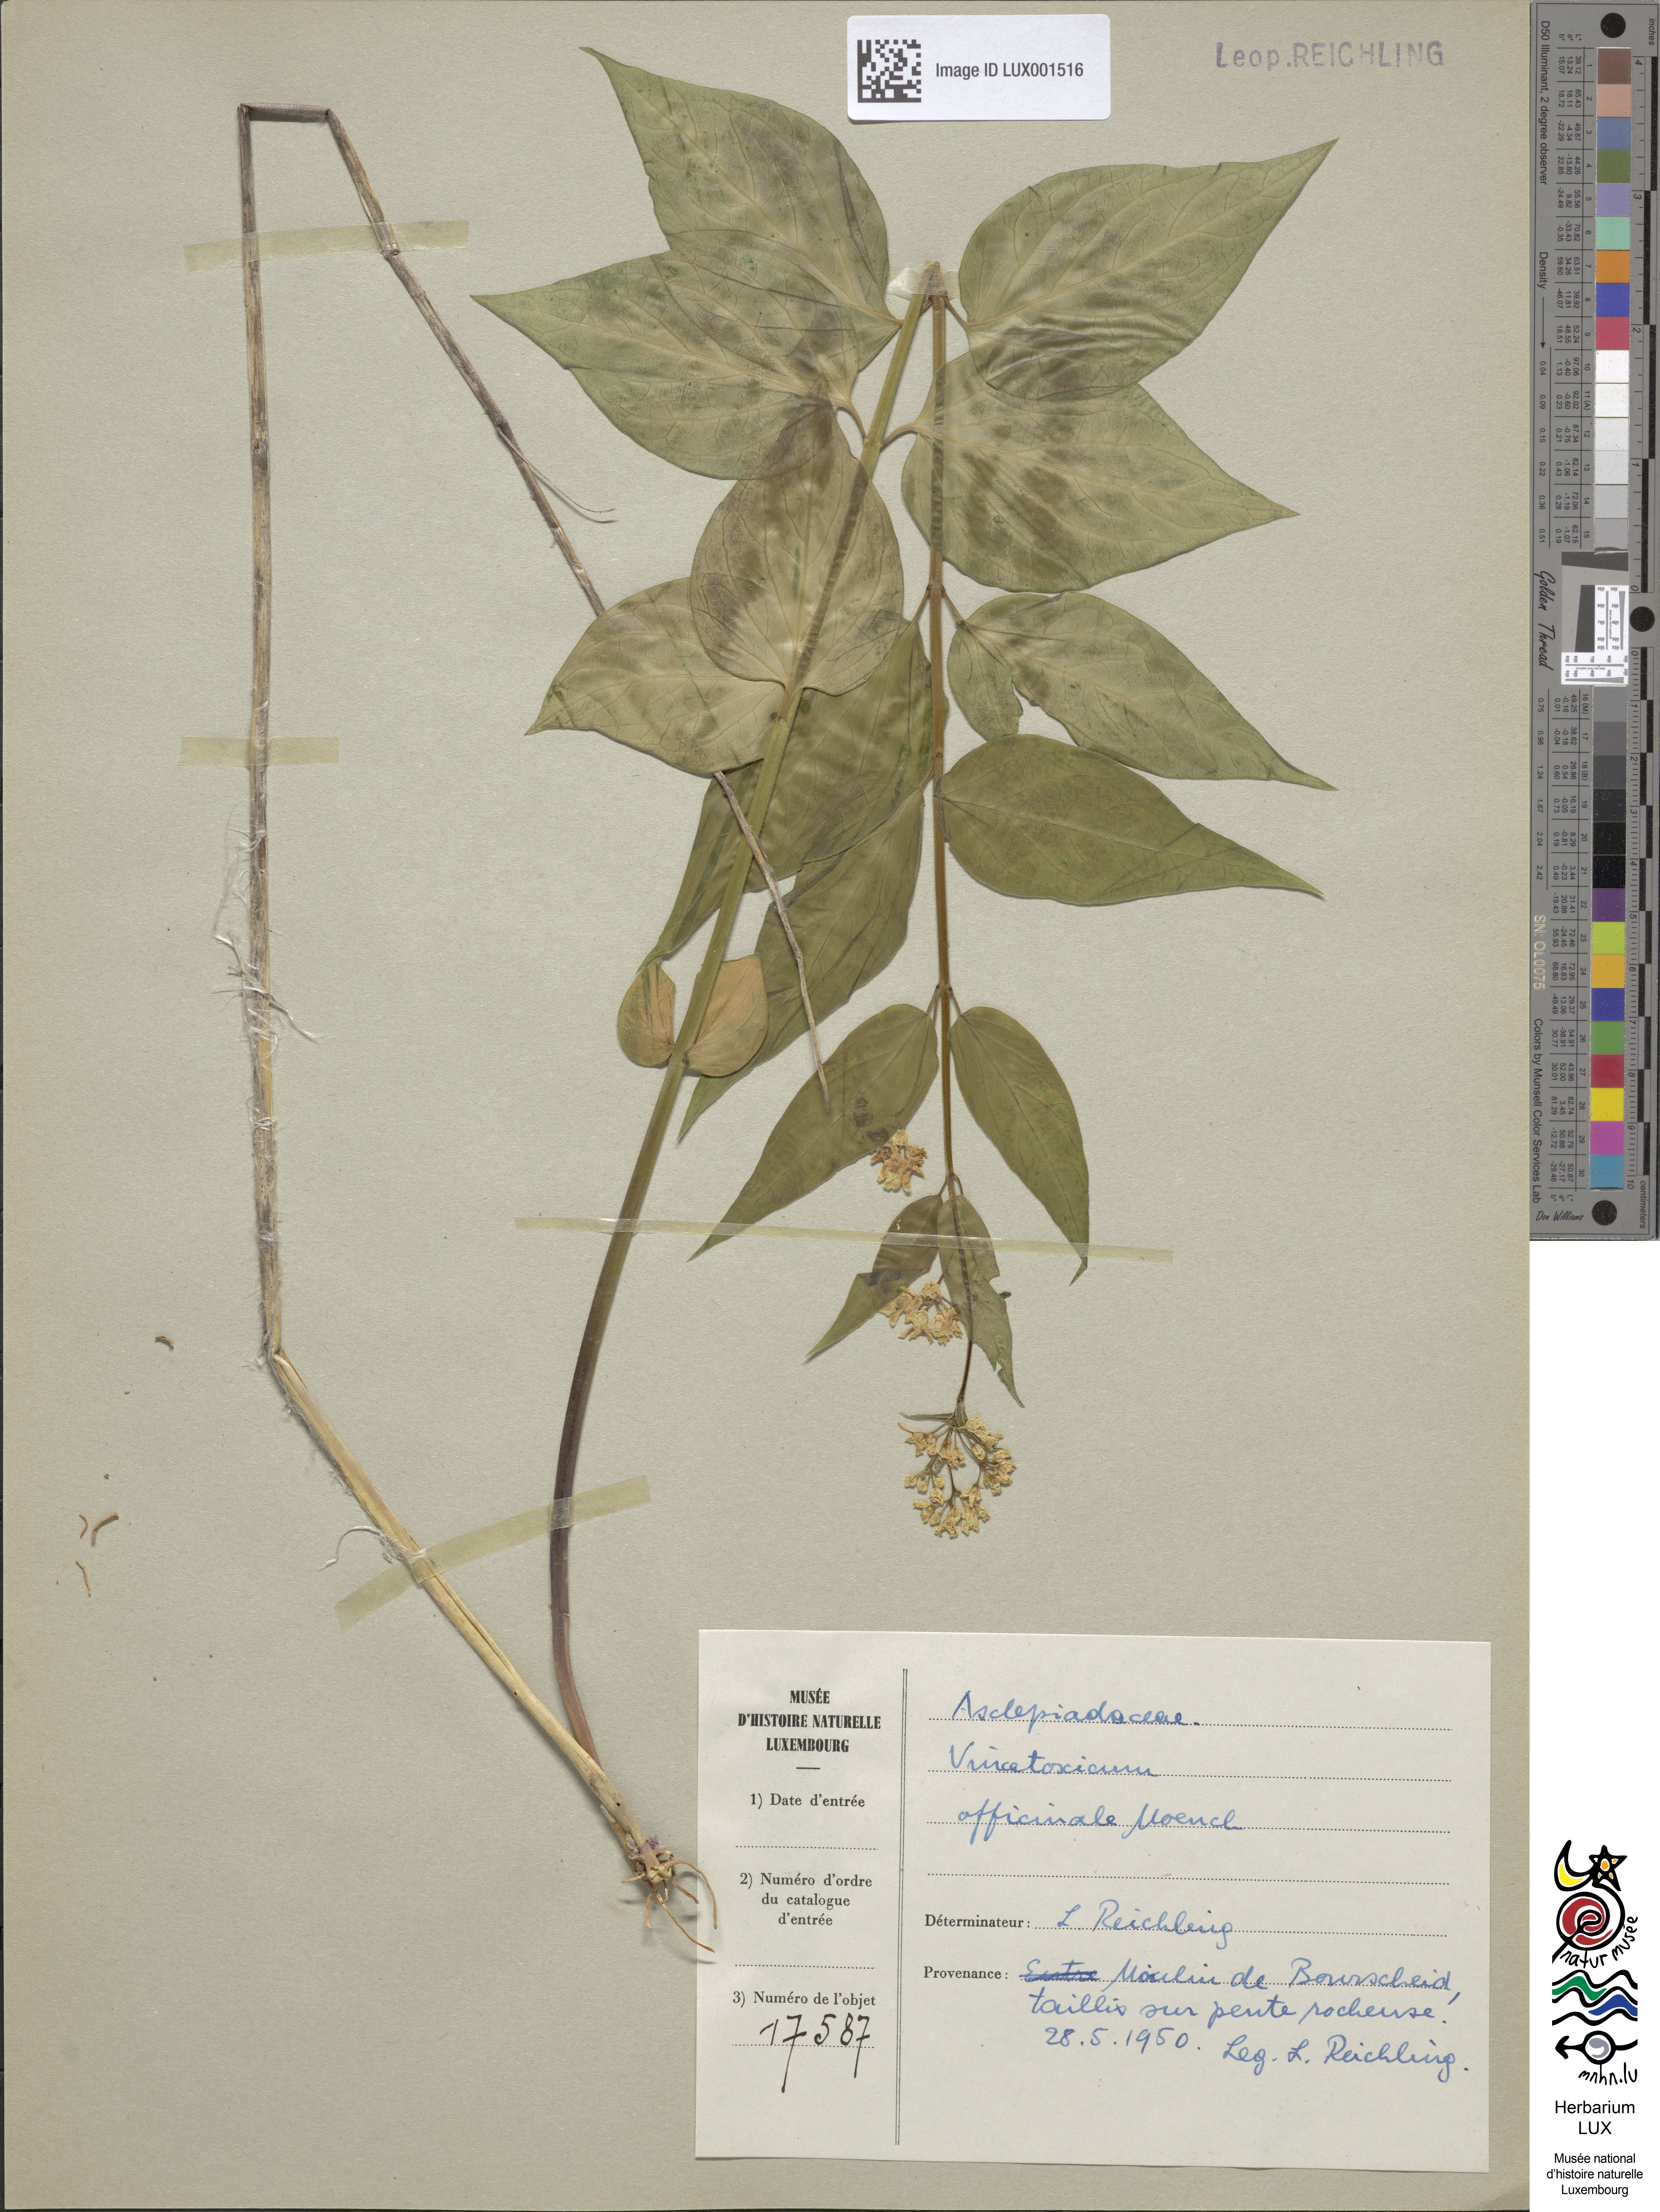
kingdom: Plantae
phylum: Tracheophyta
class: Magnoliopsida
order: Gentianales
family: Apocynaceae
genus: Vincetoxicum
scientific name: Vincetoxicum hirundinaria
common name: White swallowwort
